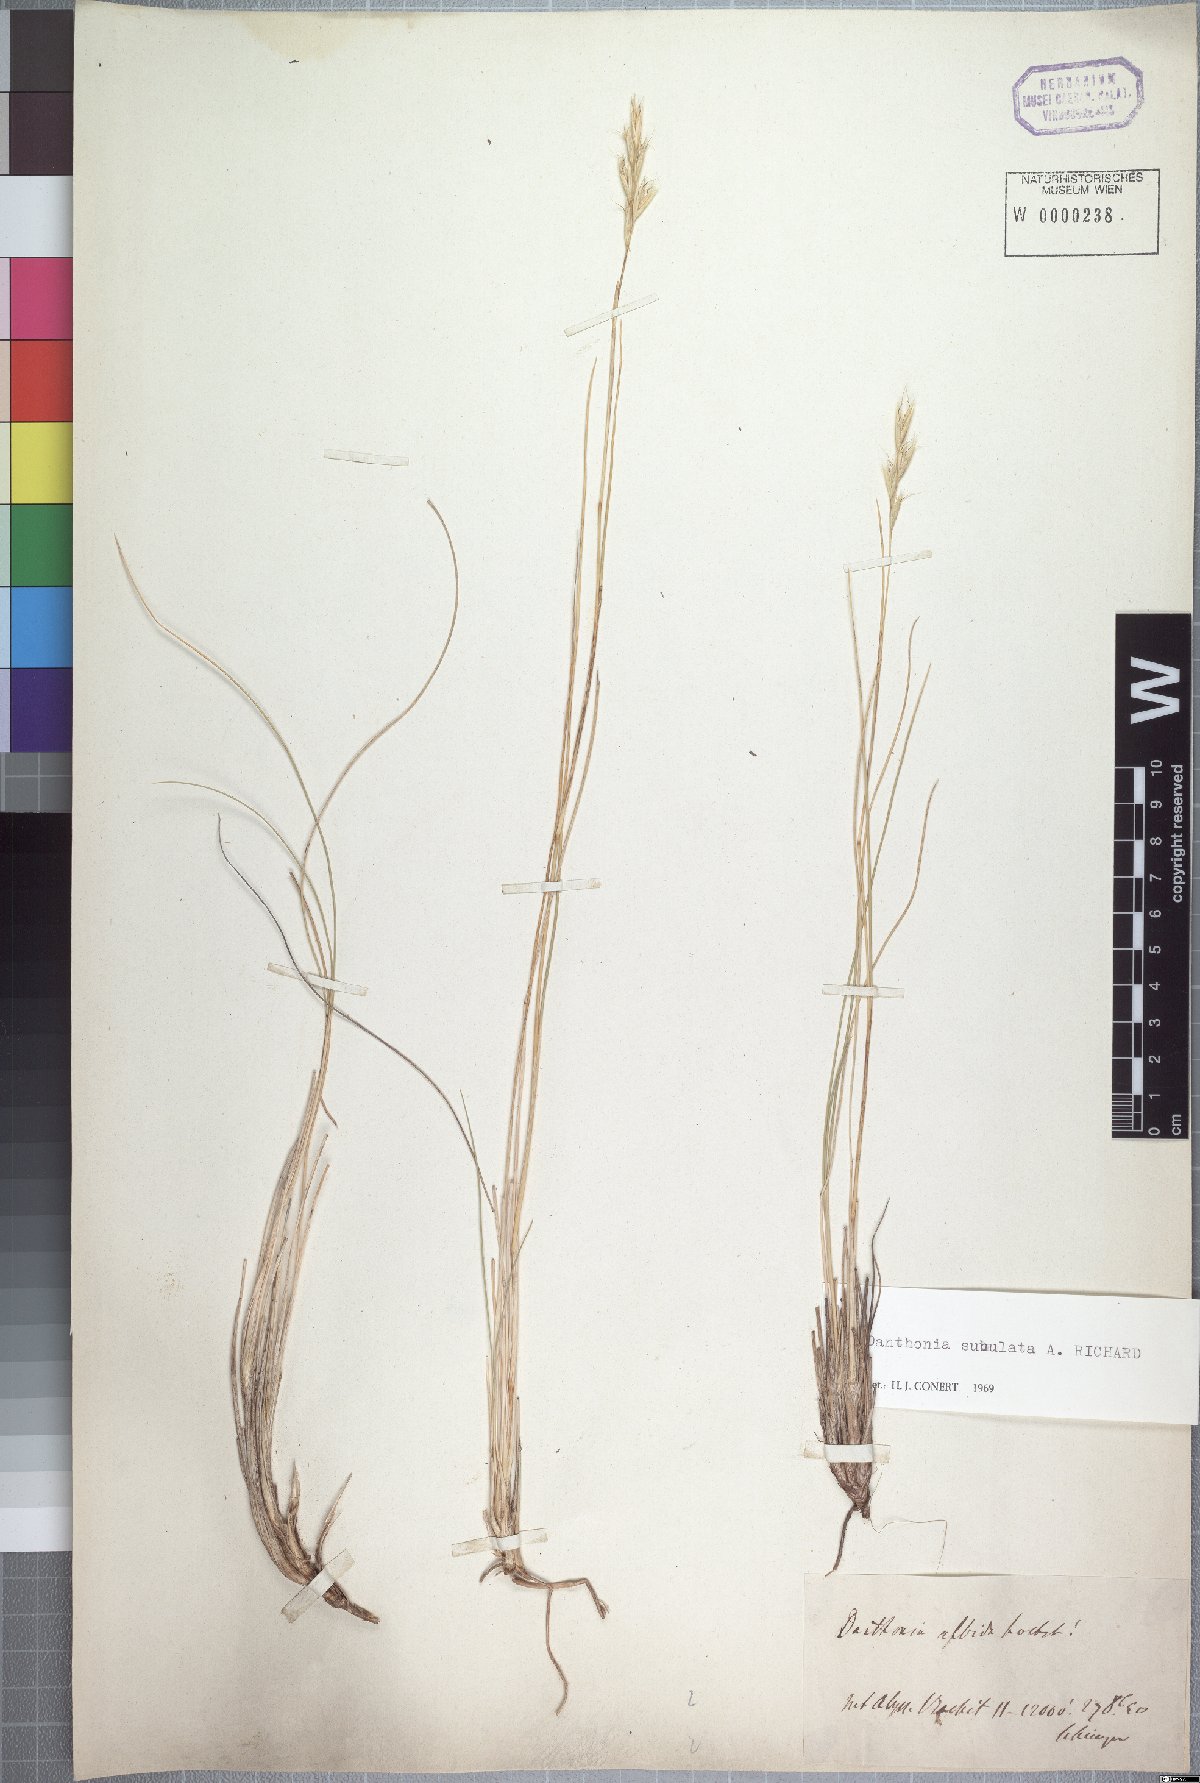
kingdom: Plantae
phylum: Tracheophyta
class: Liliopsida
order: Poales
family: Poaceae
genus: Tenaxia
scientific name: Tenaxia subulata
